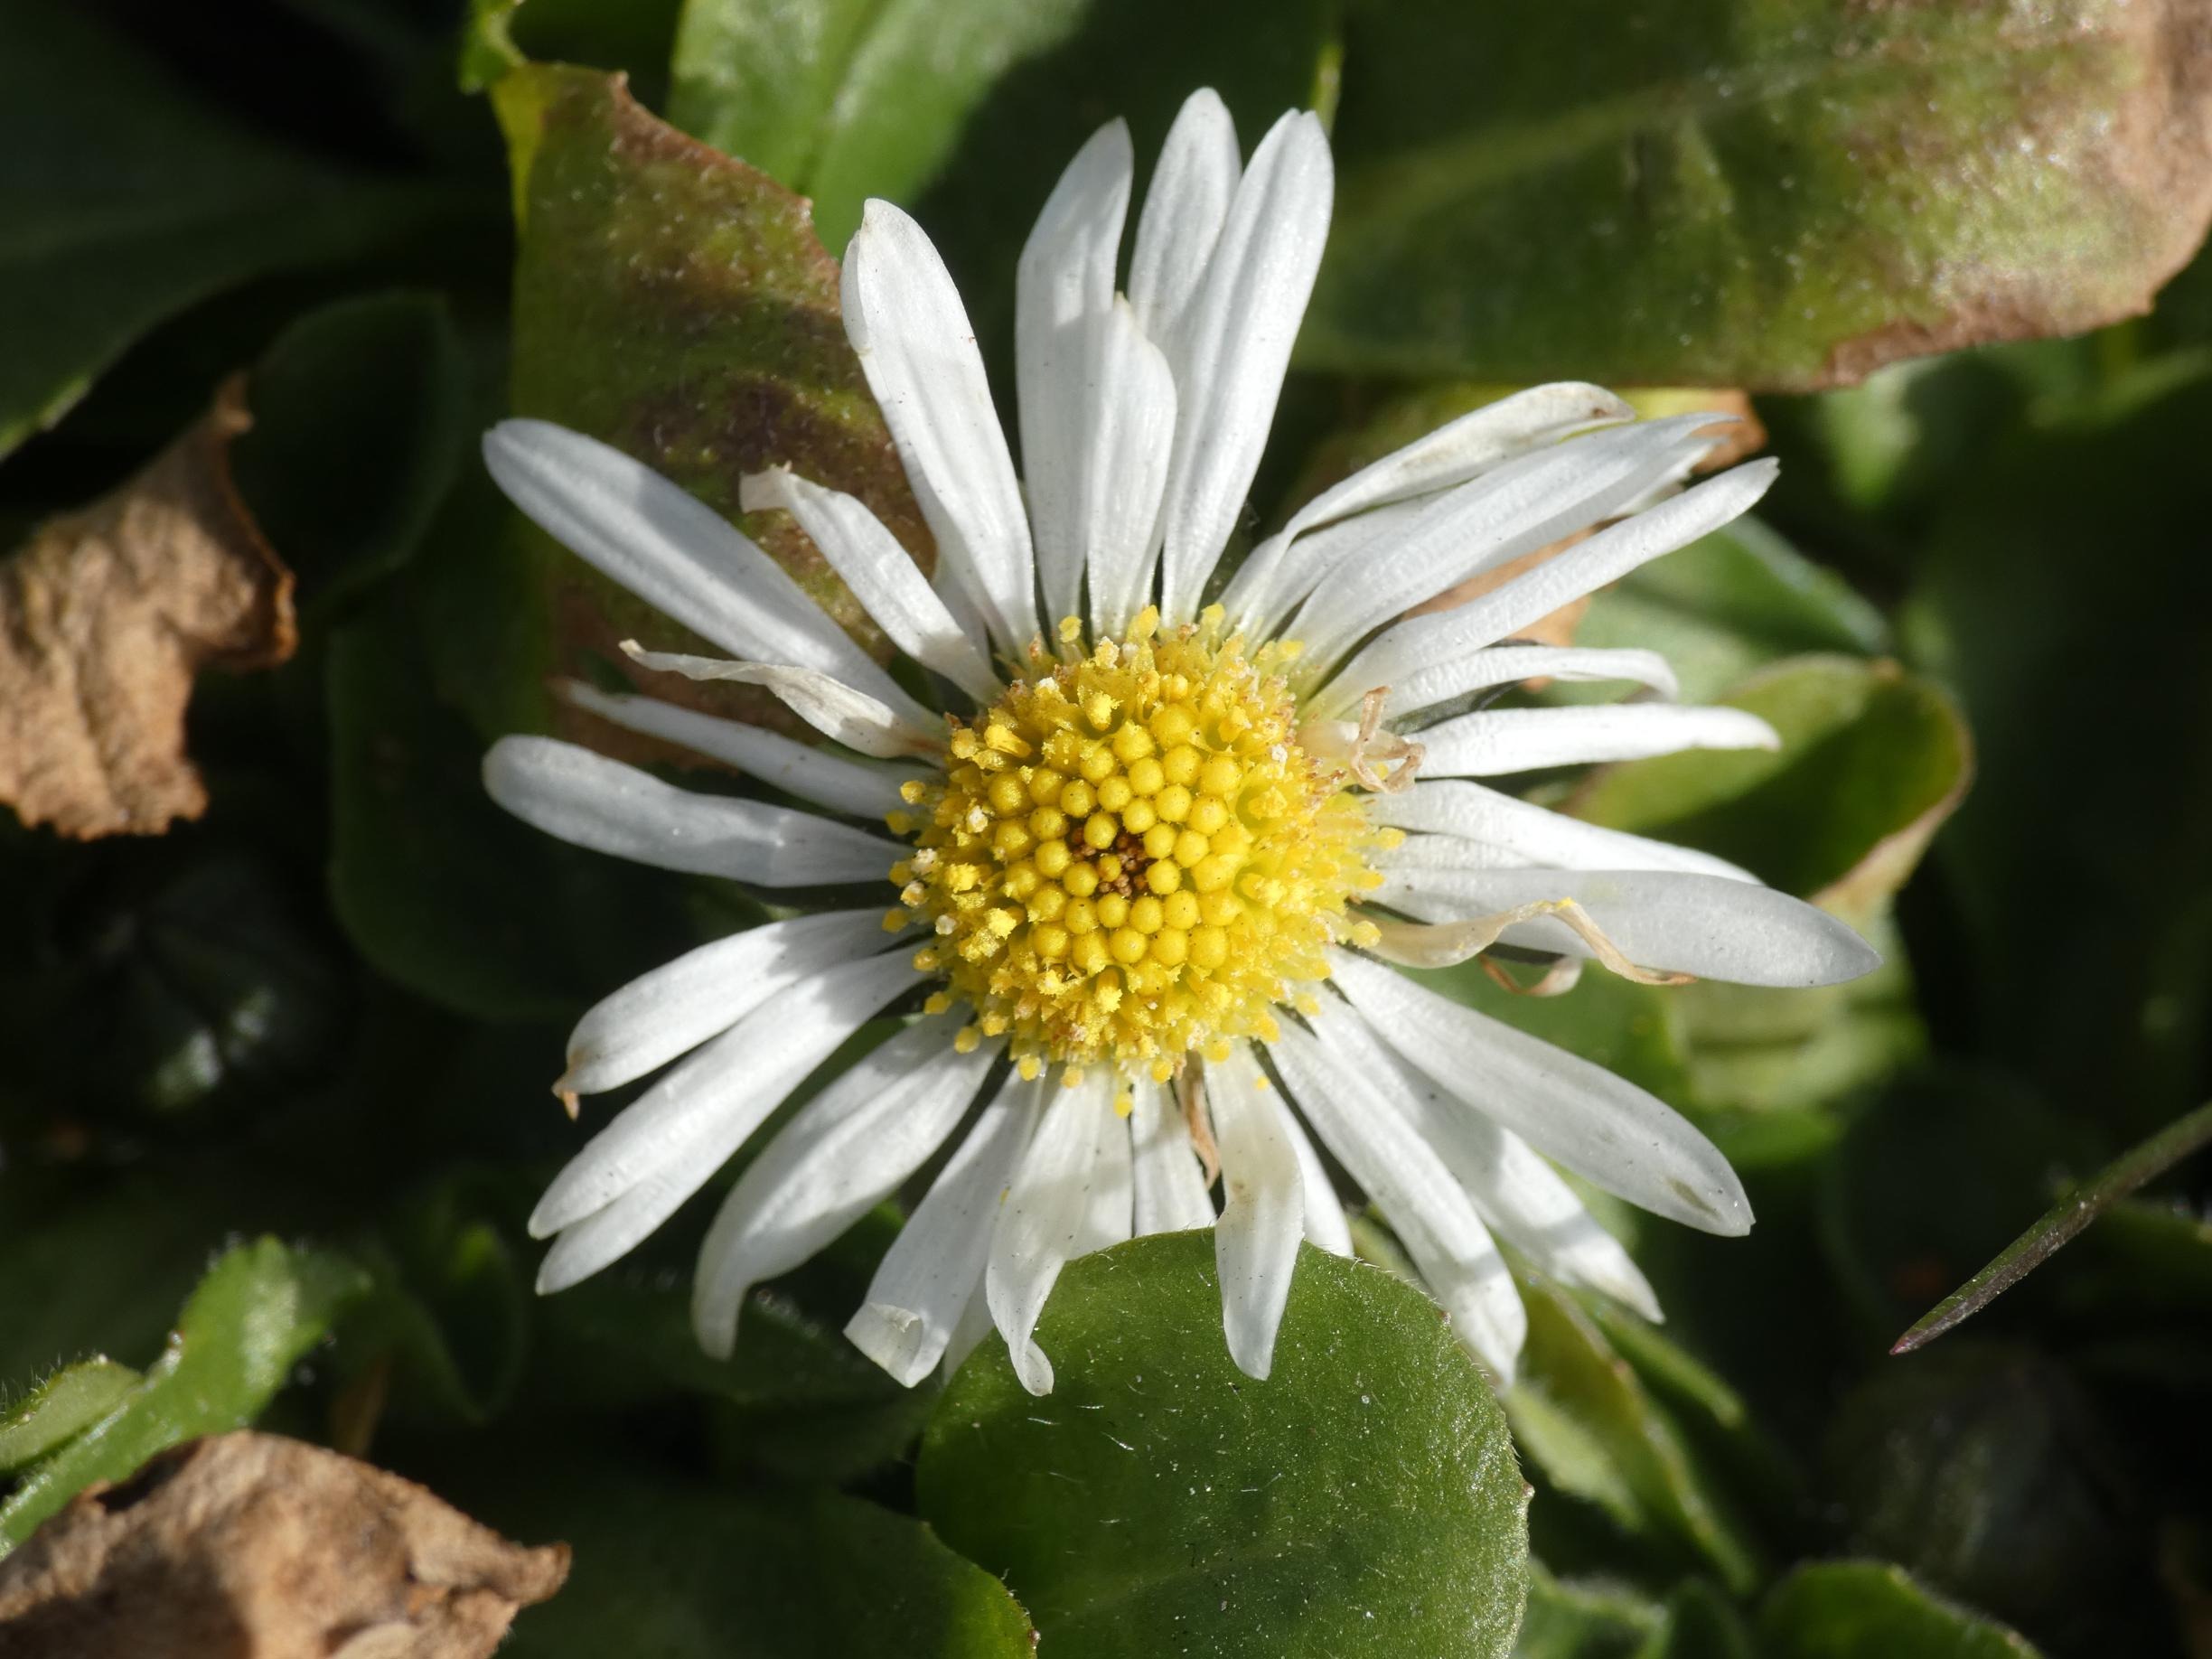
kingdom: Plantae
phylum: Tracheophyta
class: Magnoliopsida
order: Asterales
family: Asteraceae
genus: Bellis
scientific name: Bellis perennis
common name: Tusindfryd
